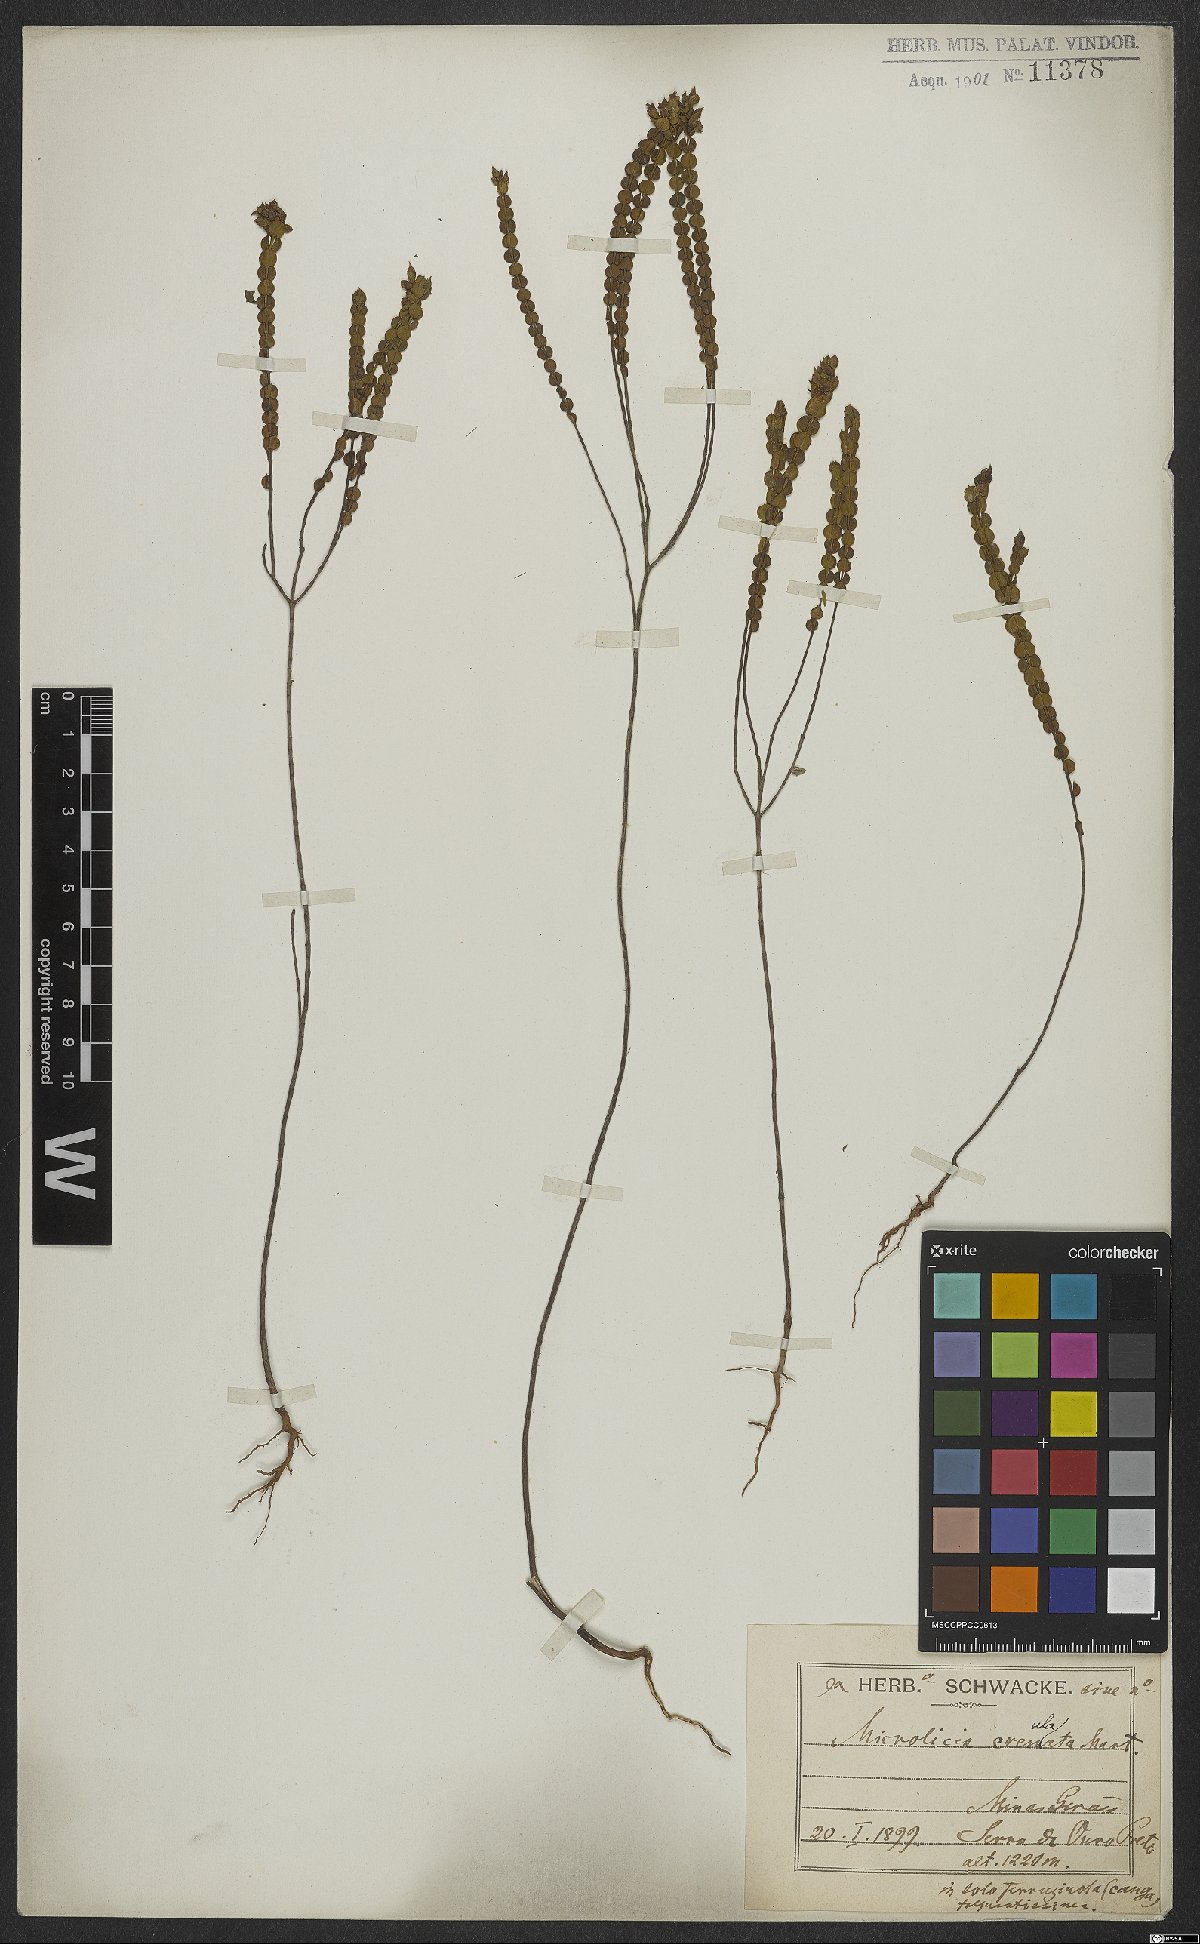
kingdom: Plantae
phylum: Tracheophyta
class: Magnoliopsida
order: Myrtales
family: Melastomataceae
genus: Microlicia
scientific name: Microlicia crenulata
